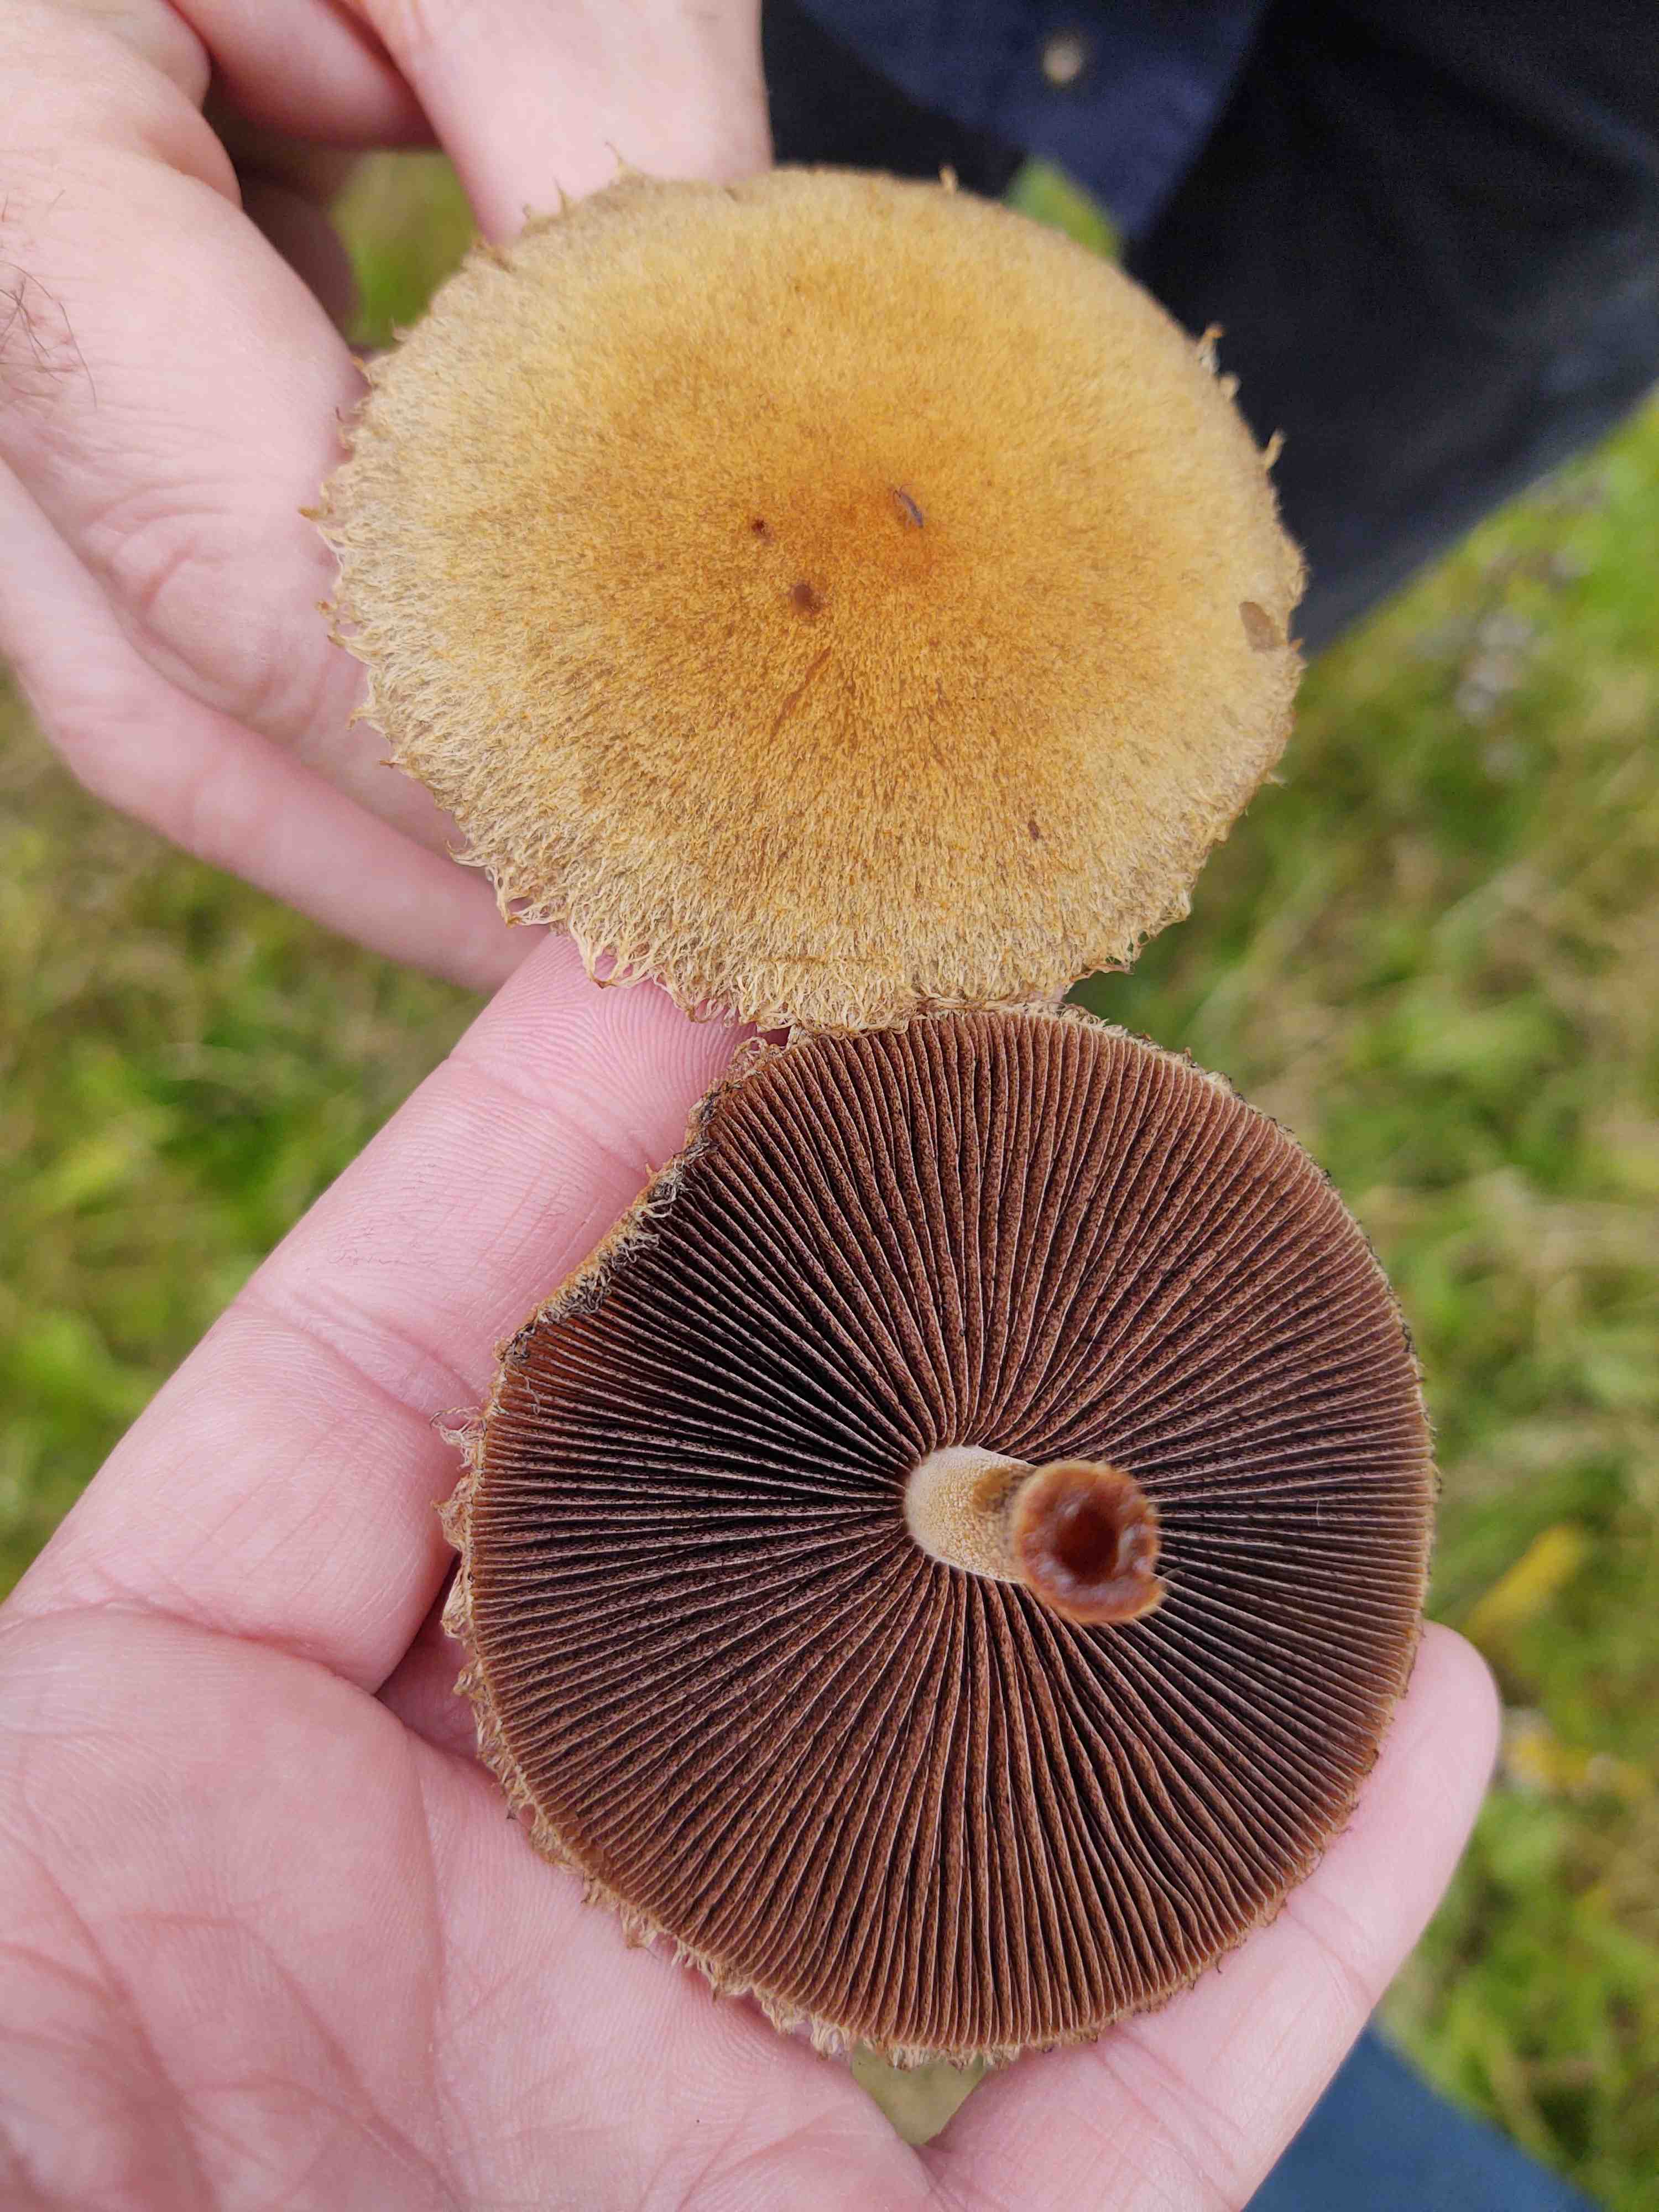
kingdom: Fungi
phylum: Basidiomycota
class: Agaricomycetes
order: Agaricales
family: Psathyrellaceae
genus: Lacrymaria
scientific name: Lacrymaria lacrymabunda
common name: grædende mørkhat
